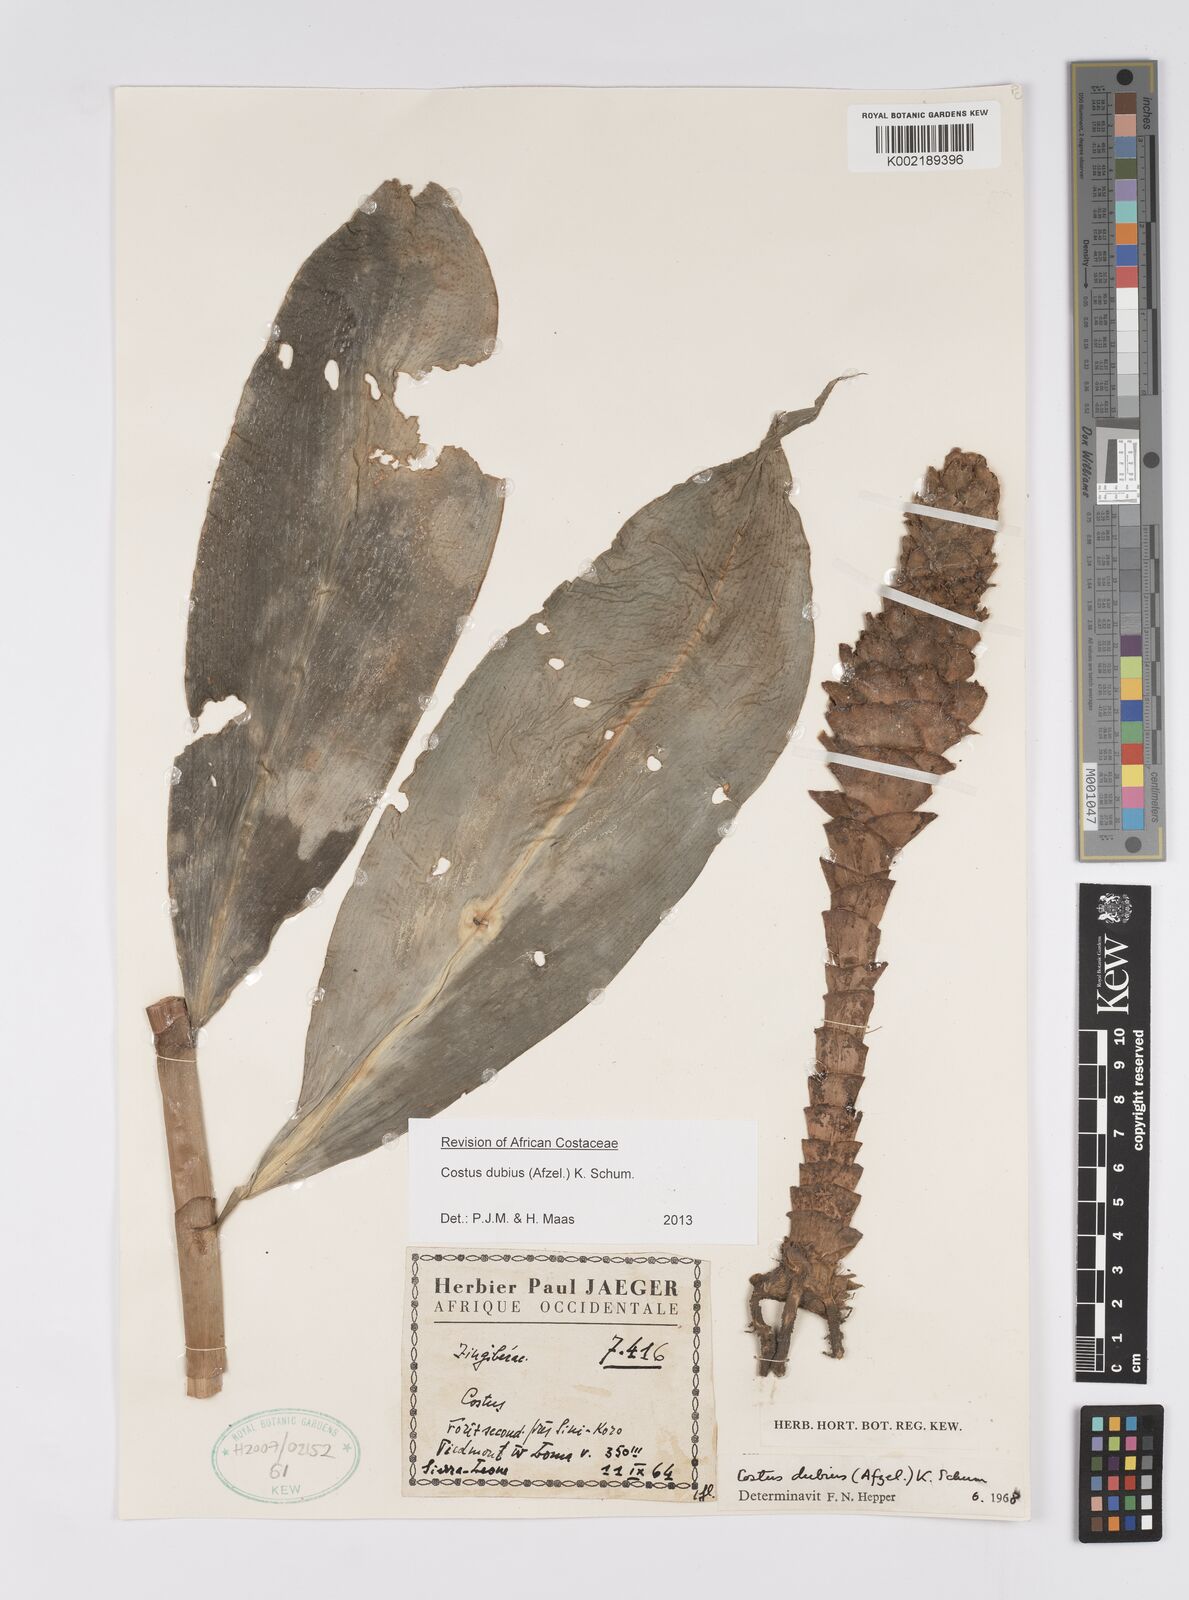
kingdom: Plantae
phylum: Tracheophyta
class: Liliopsida
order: Zingiberales
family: Costaceae
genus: Costus
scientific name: Costus dubius
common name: Costus
